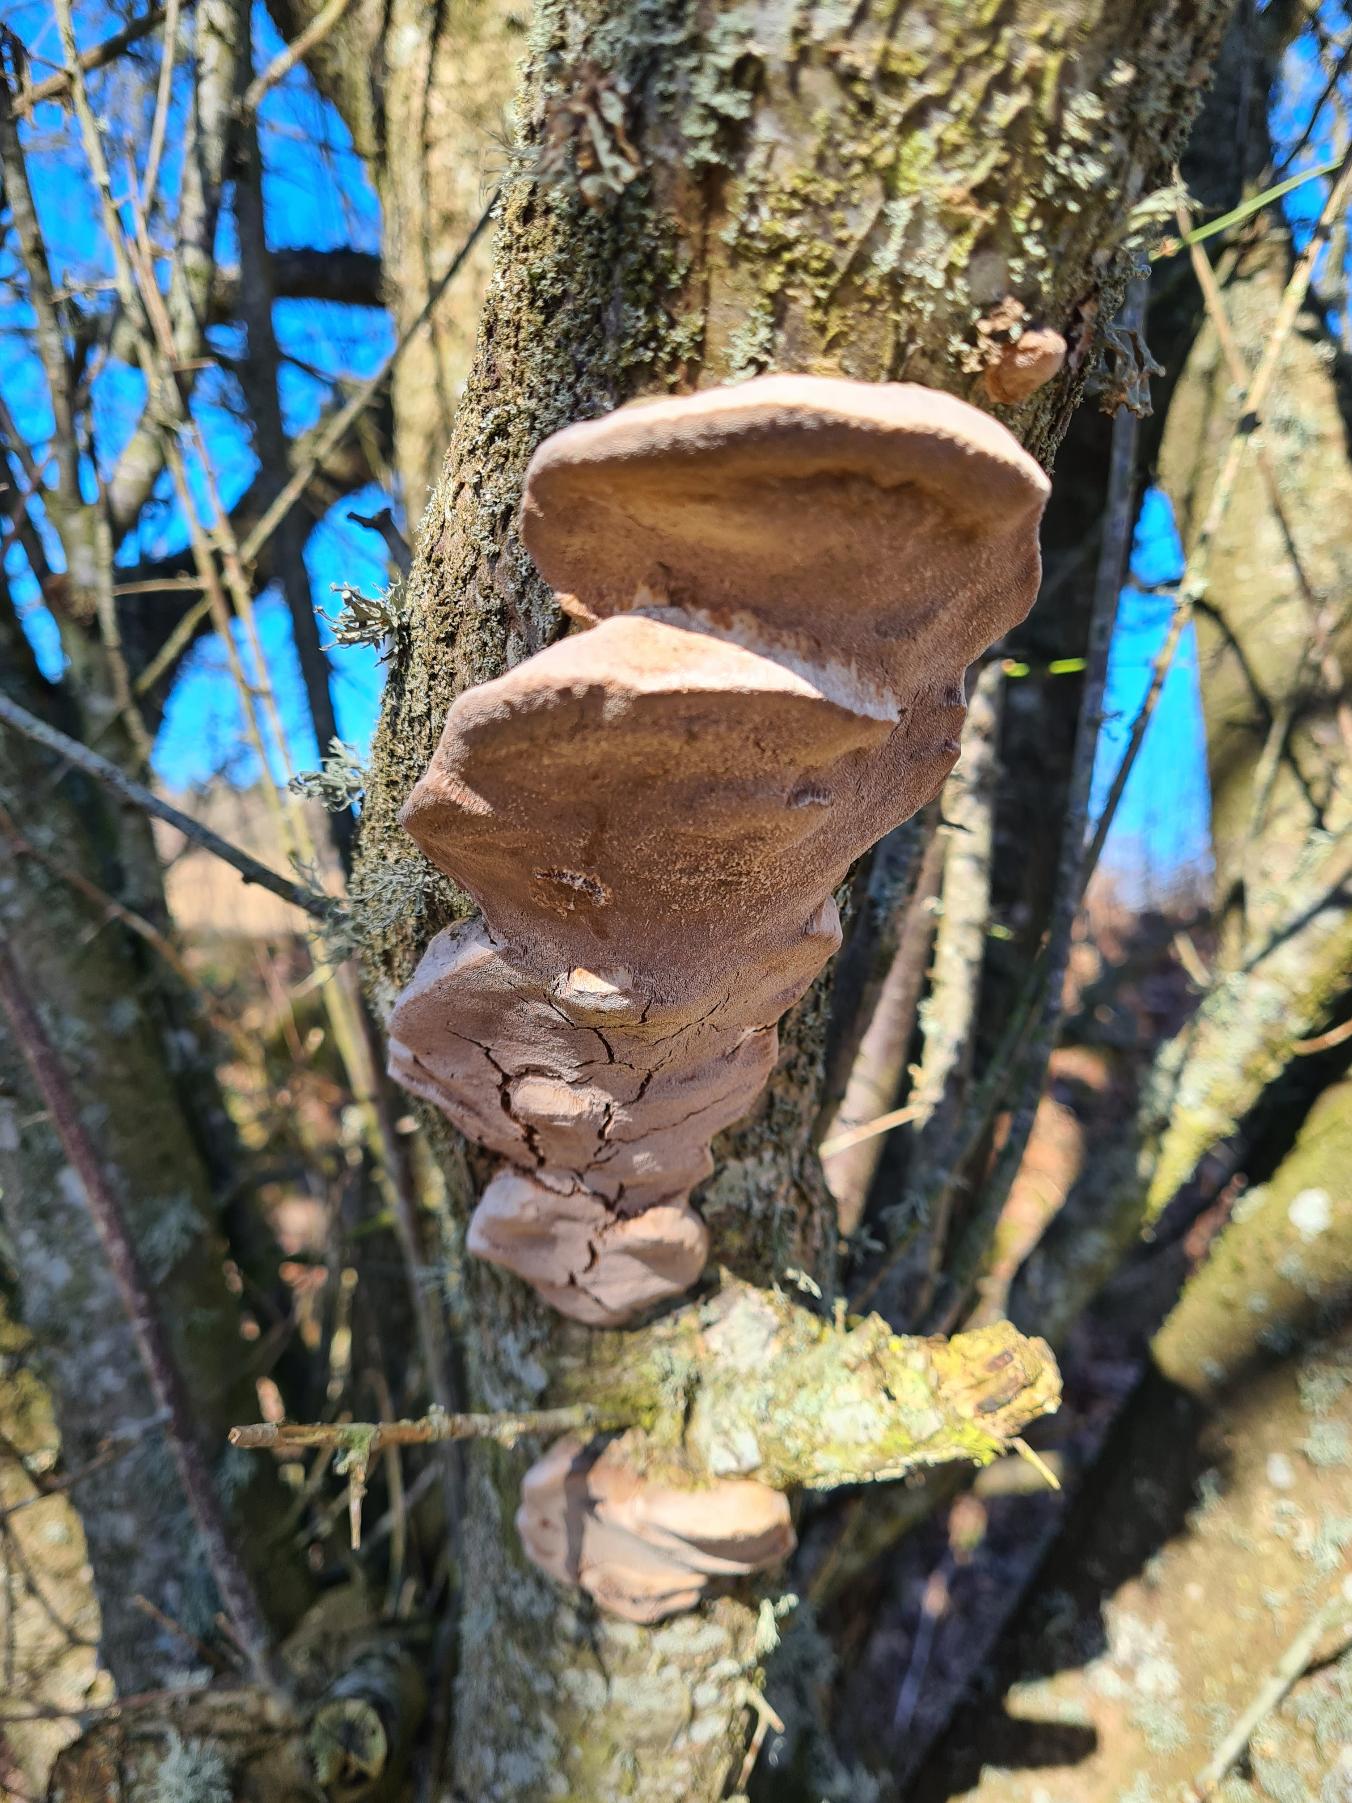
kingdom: Fungi
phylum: Basidiomycota
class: Agaricomycetes
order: Hymenochaetales
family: Hymenochaetaceae
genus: Phellinus
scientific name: Phellinus pomaceus
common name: Blomme-ildporesvamp
